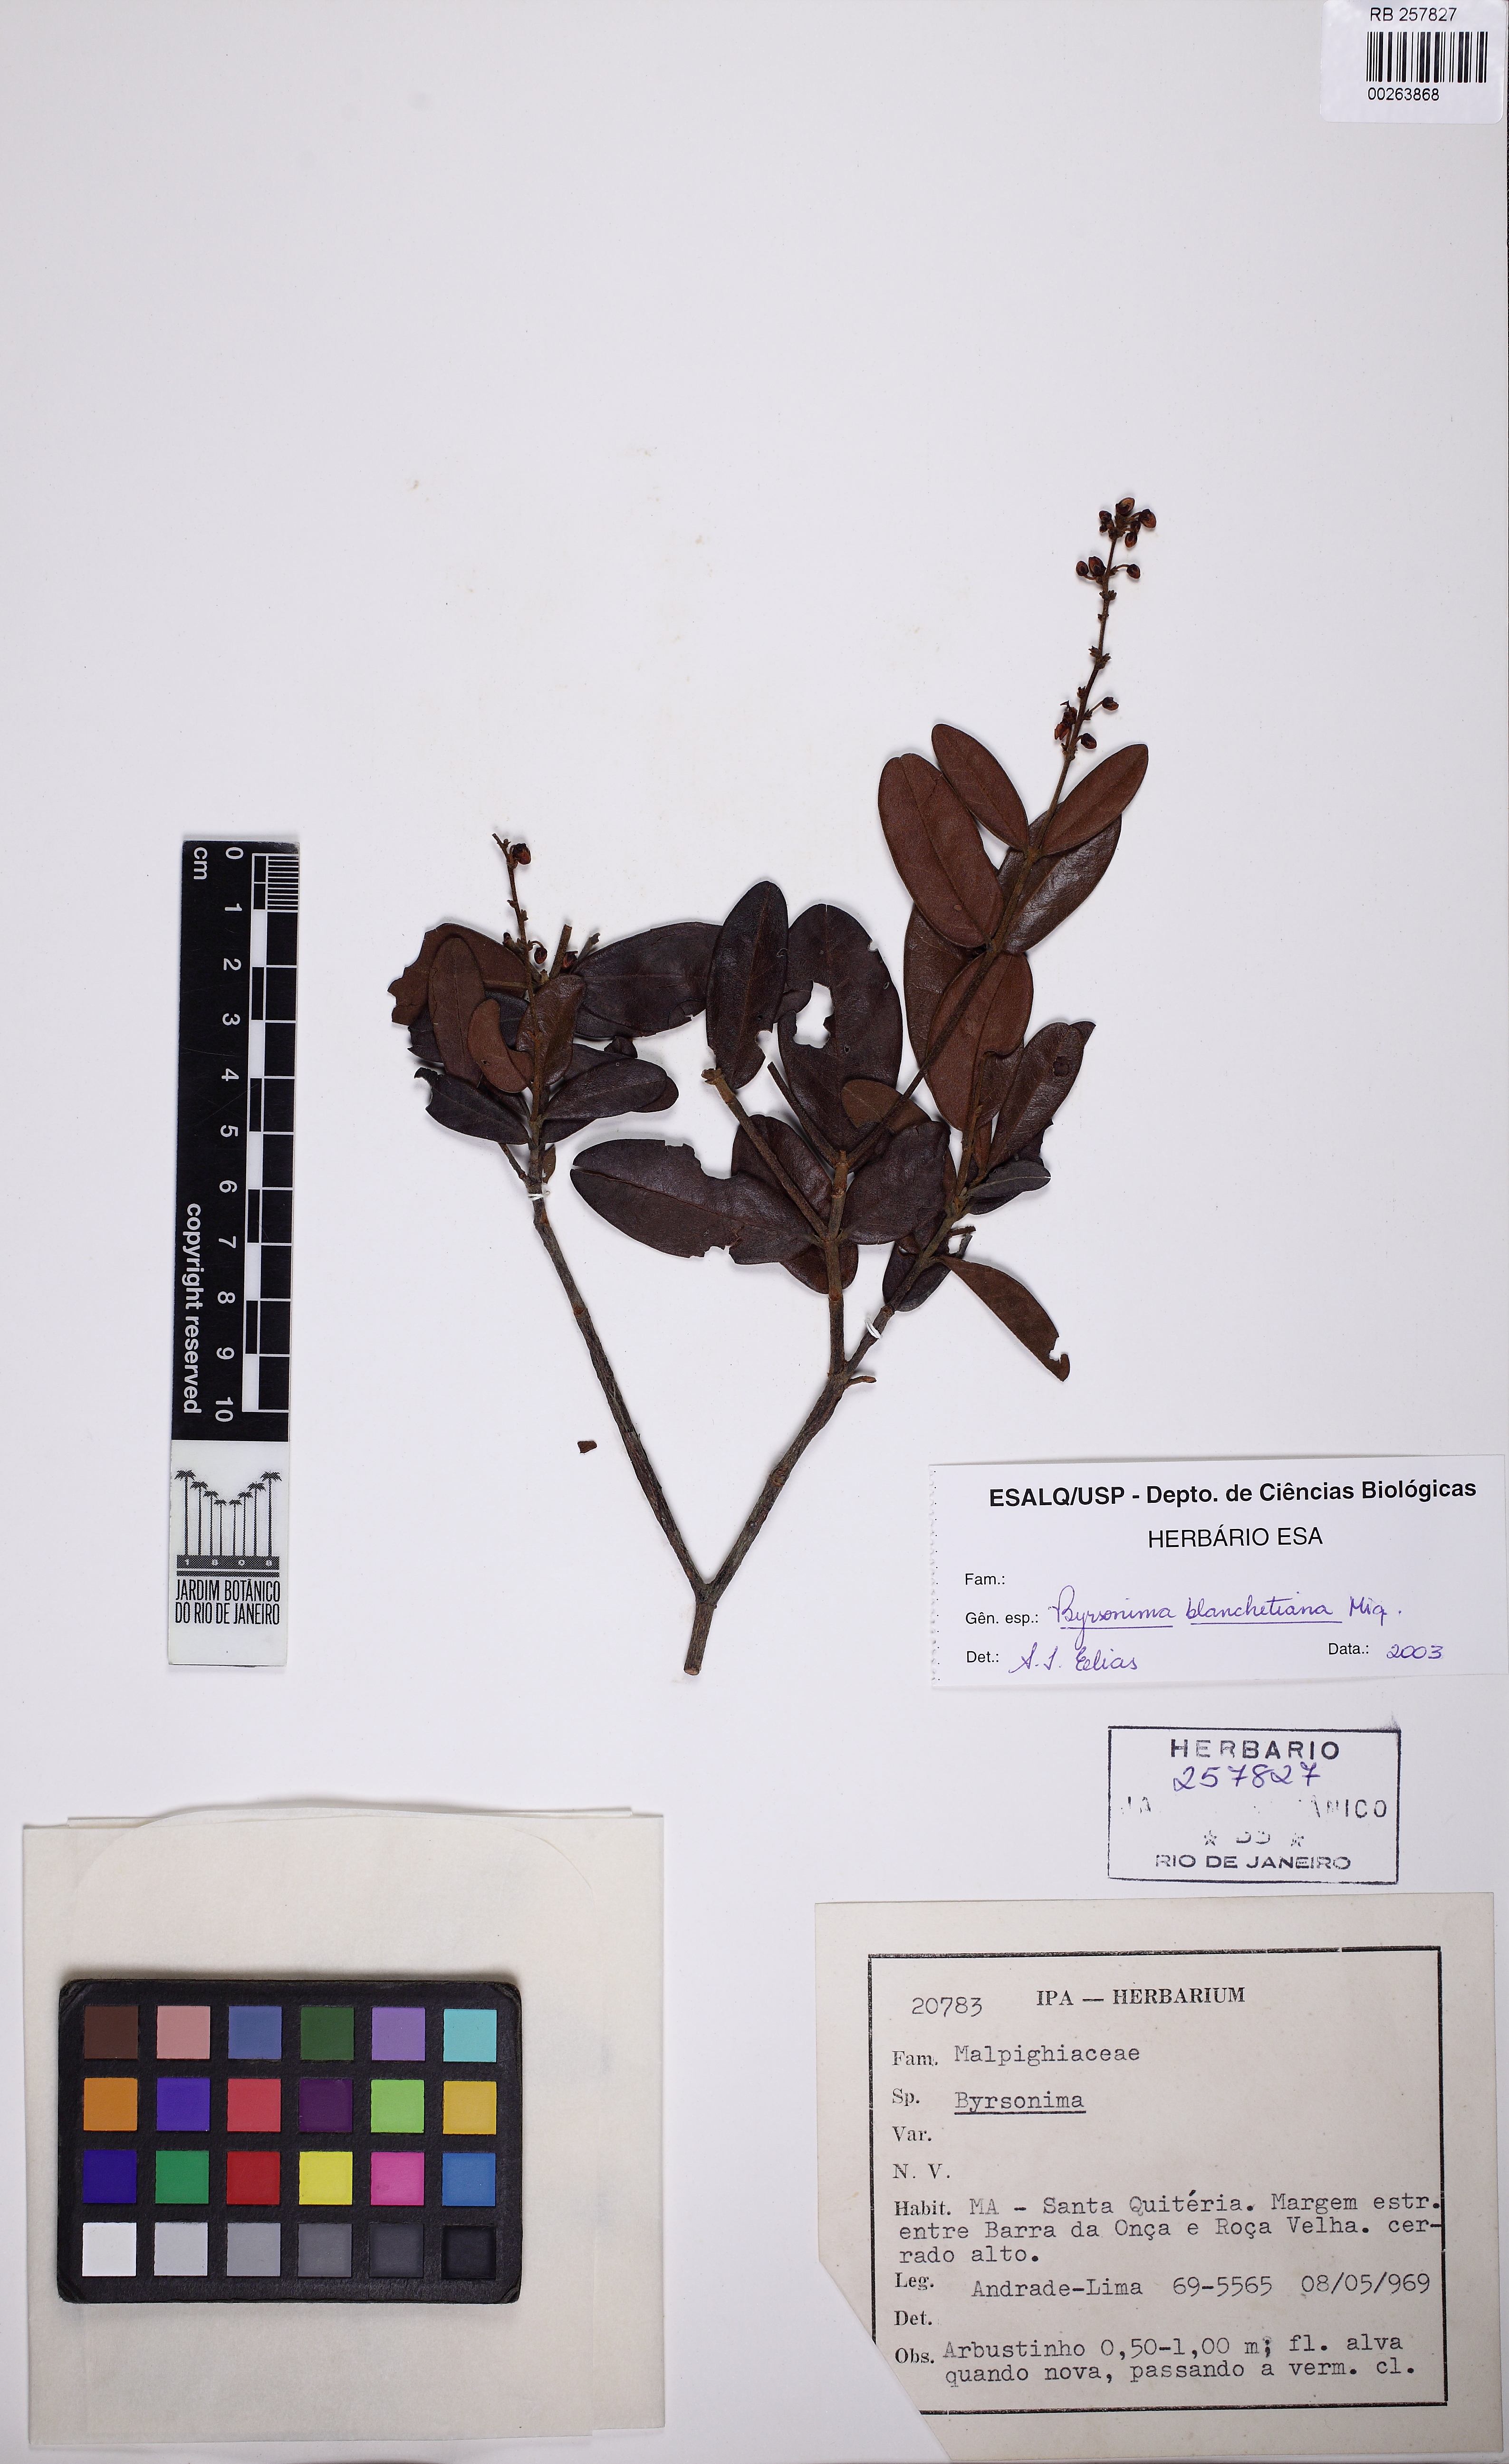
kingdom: Plantae
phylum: Tracheophyta
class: Magnoliopsida
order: Malpighiales
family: Malpighiaceae
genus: Byrsonima
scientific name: Byrsonima bicorniculata
